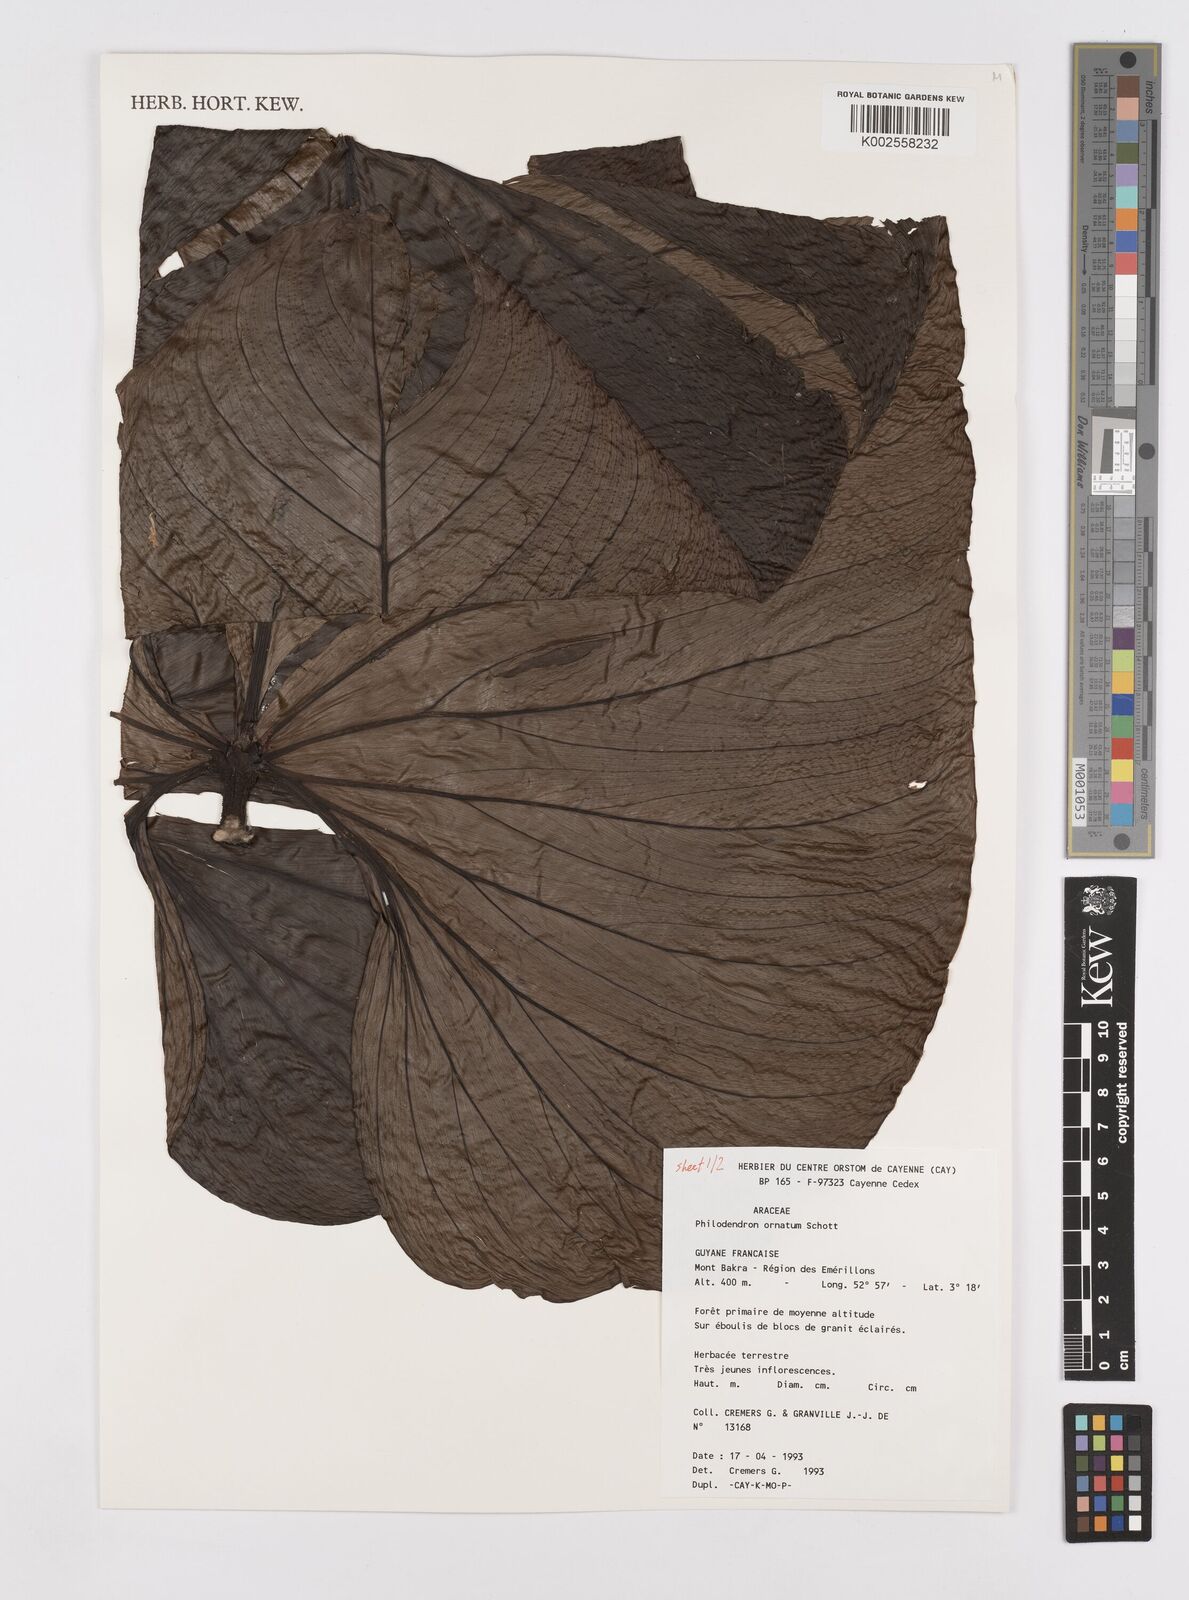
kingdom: Plantae
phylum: Tracheophyta
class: Liliopsida
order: Alismatales
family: Araceae
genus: Philodendron
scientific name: Philodendron ornatum
